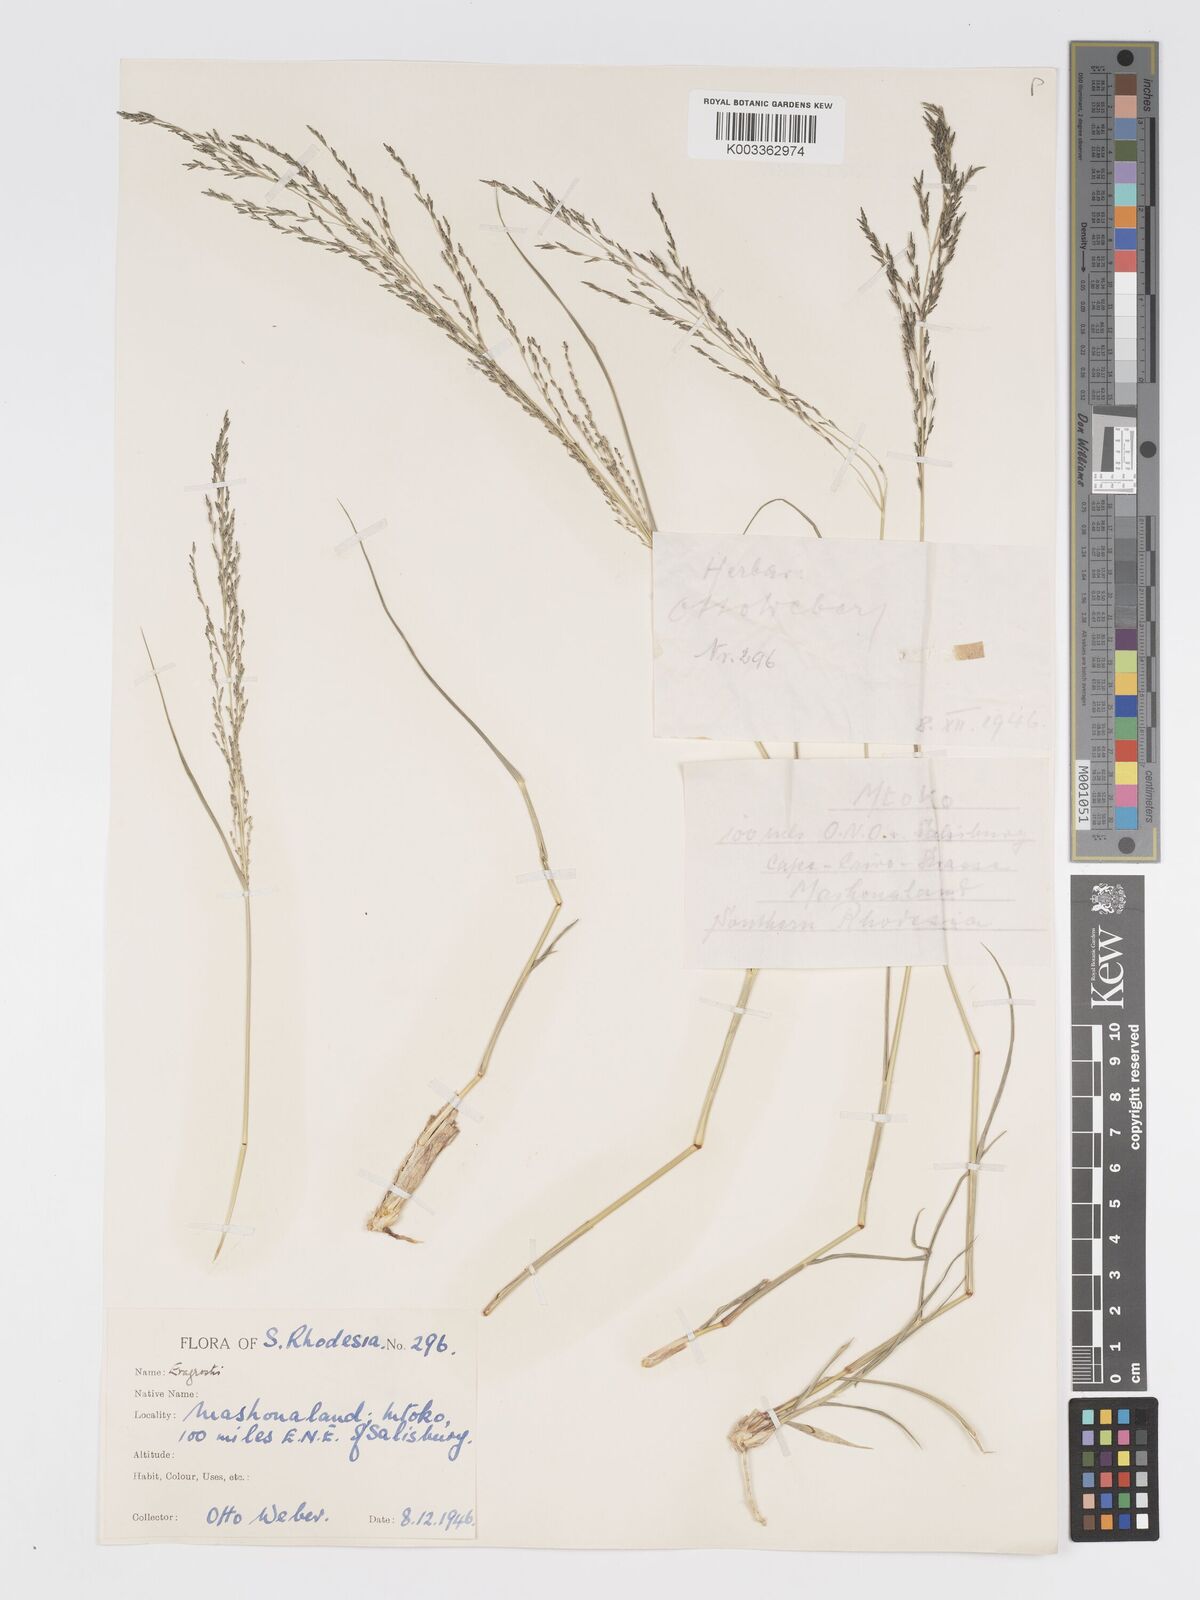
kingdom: Plantae
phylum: Tracheophyta
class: Liliopsida
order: Poales
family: Poaceae
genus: Eragrostis
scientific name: Eragrostis cylindriflora
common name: Cylinderflower lovegrass
